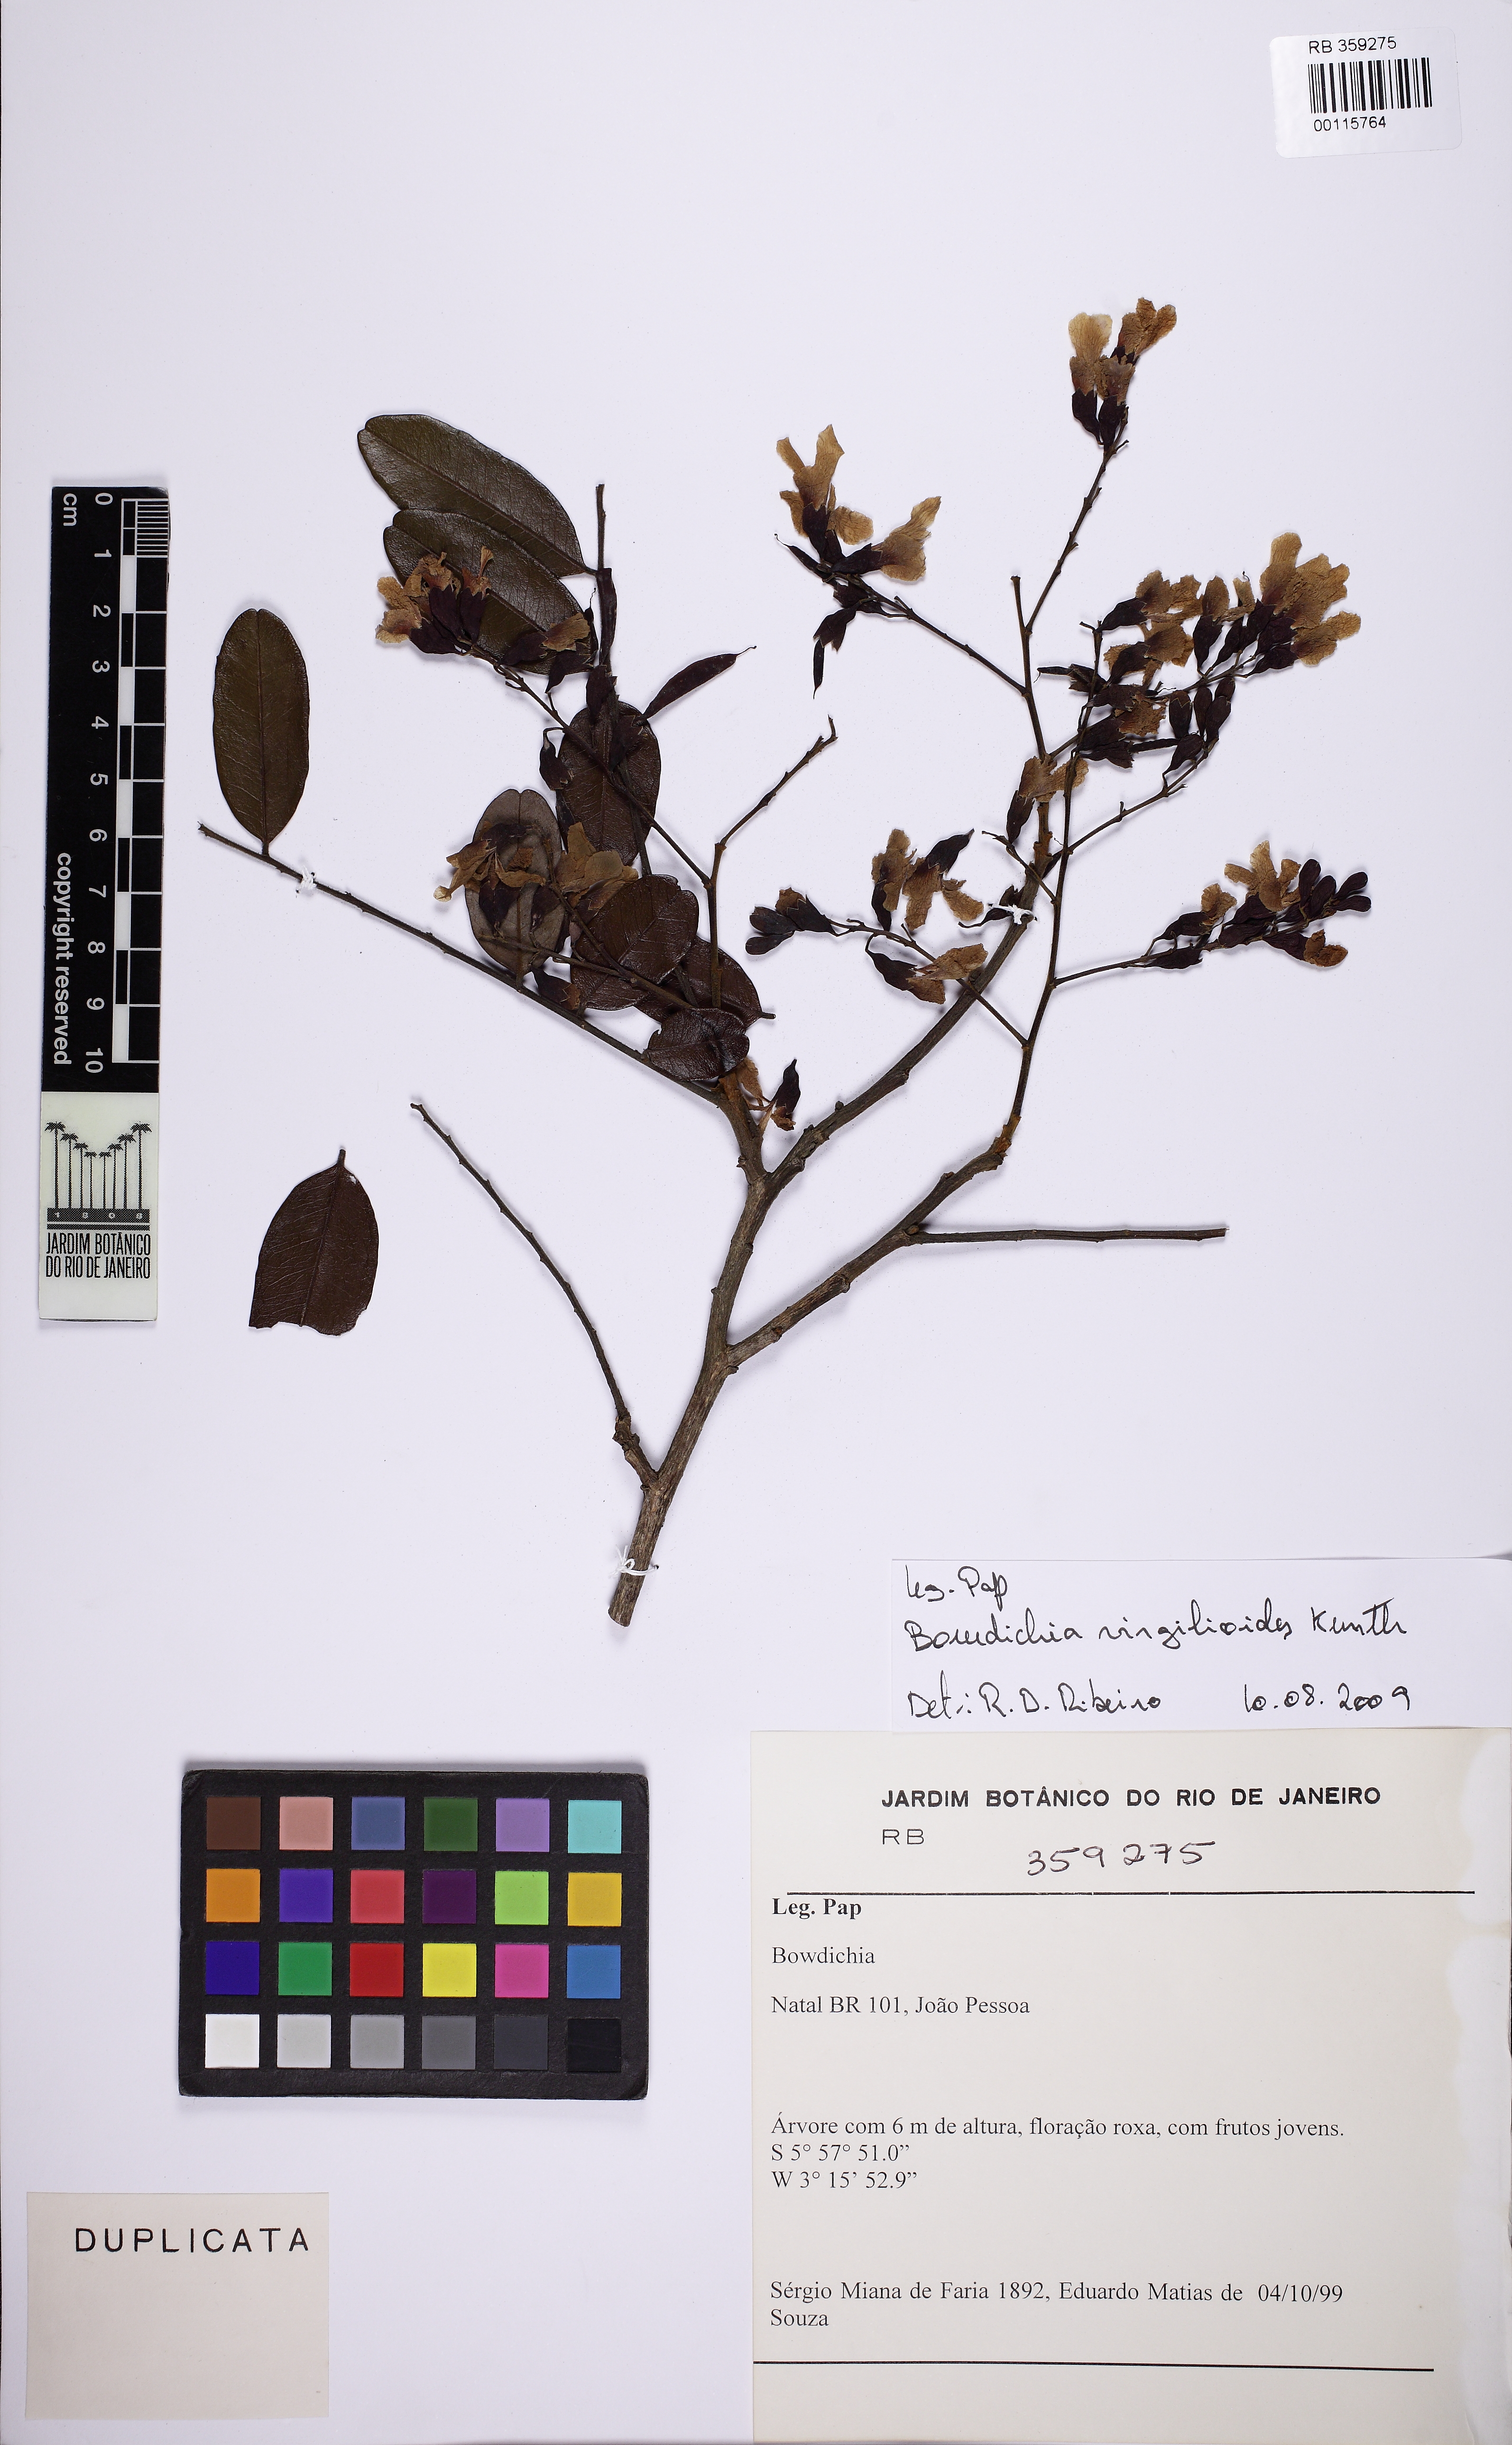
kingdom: Plantae
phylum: Tracheophyta
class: Magnoliopsida
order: Fabales
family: Fabaceae
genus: Bowdichia
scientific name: Bowdichia
